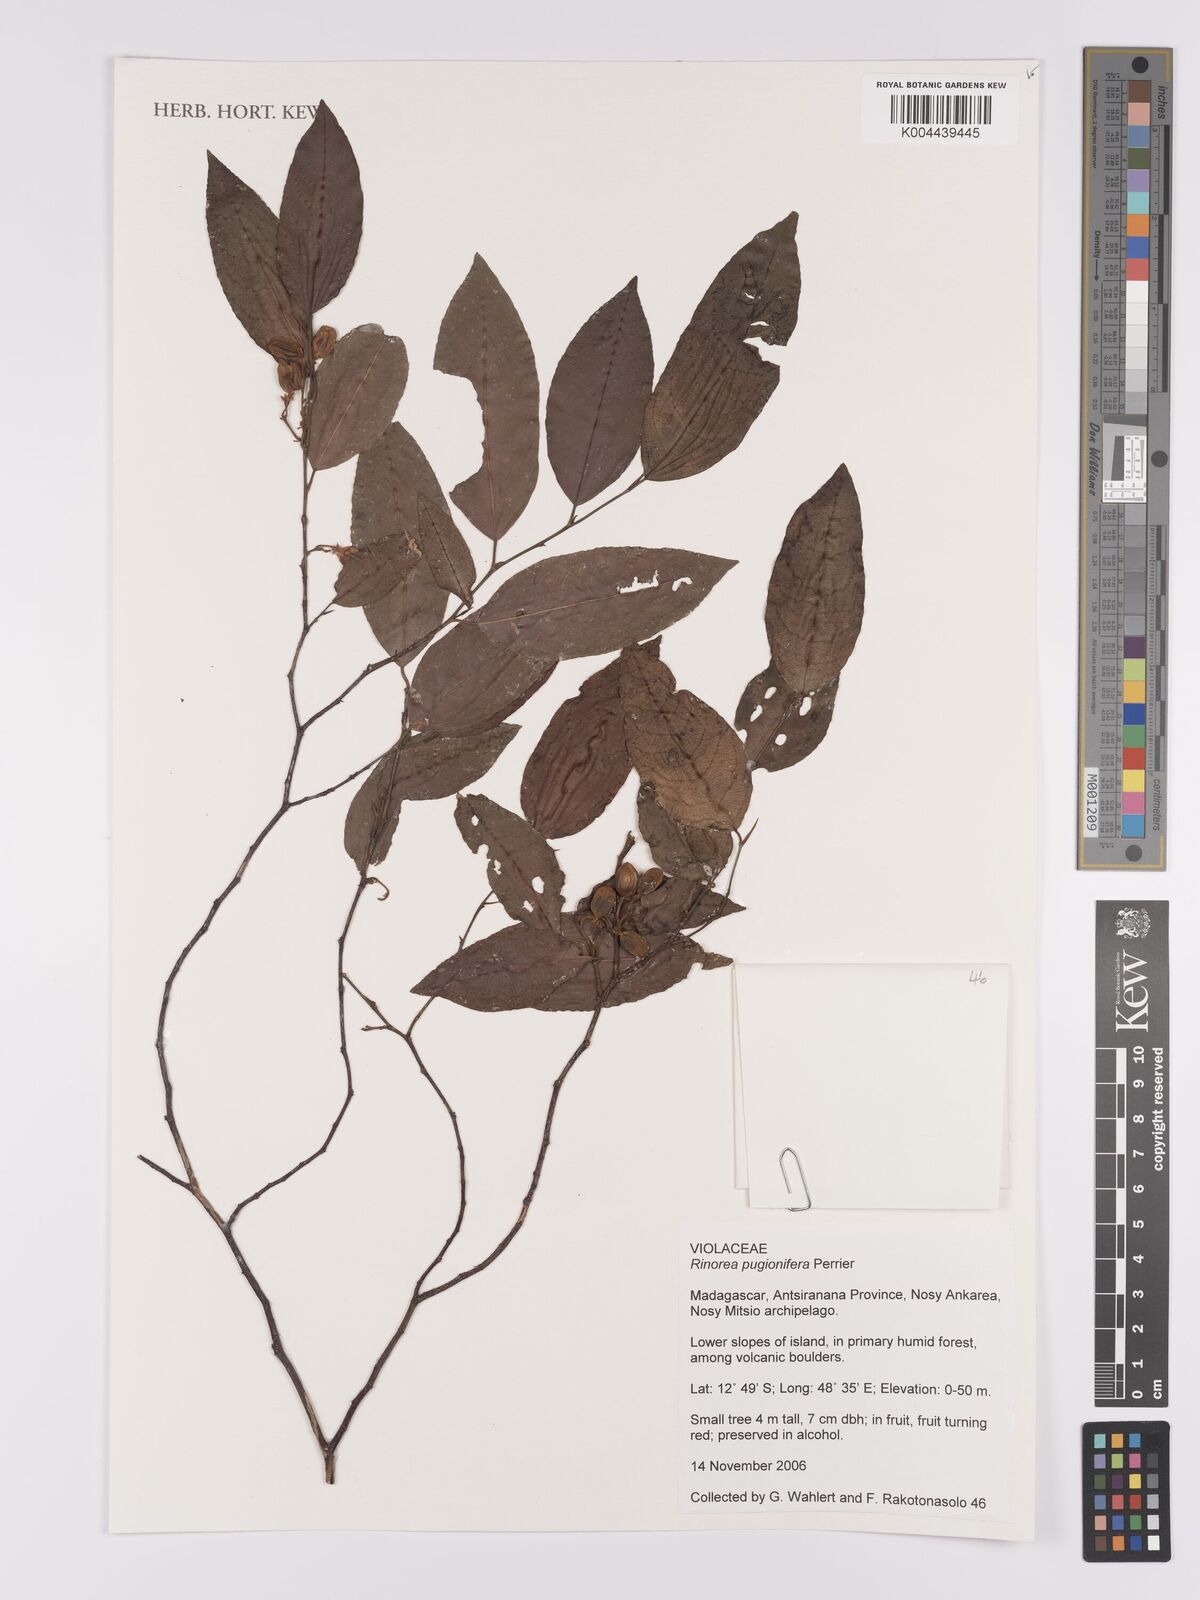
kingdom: Plantae
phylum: Tracheophyta
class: Magnoliopsida
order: Malpighiales
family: Violaceae
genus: Rinorea
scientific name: Rinorea pugionifera
